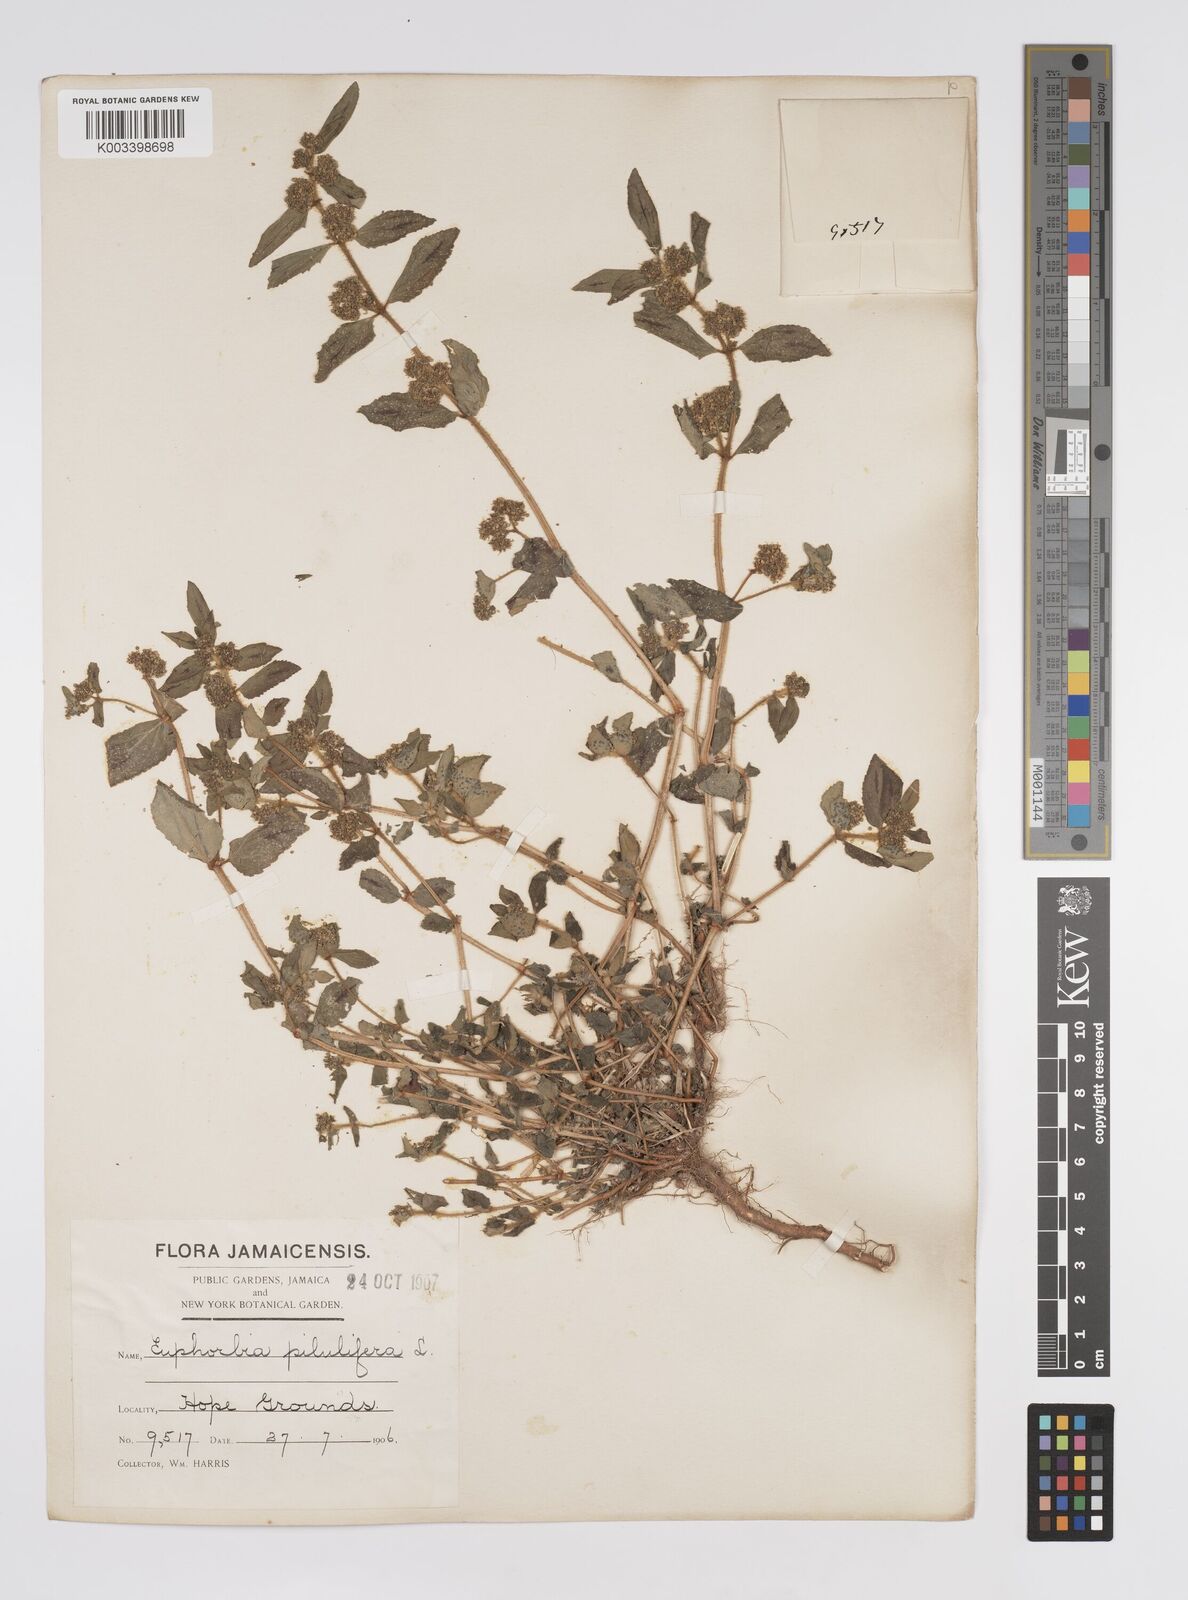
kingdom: Plantae
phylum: Tracheophyta
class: Magnoliopsida
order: Malpighiales
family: Euphorbiaceae
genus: Euphorbia
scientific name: Euphorbia hirta
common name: Pillpod sandmat
